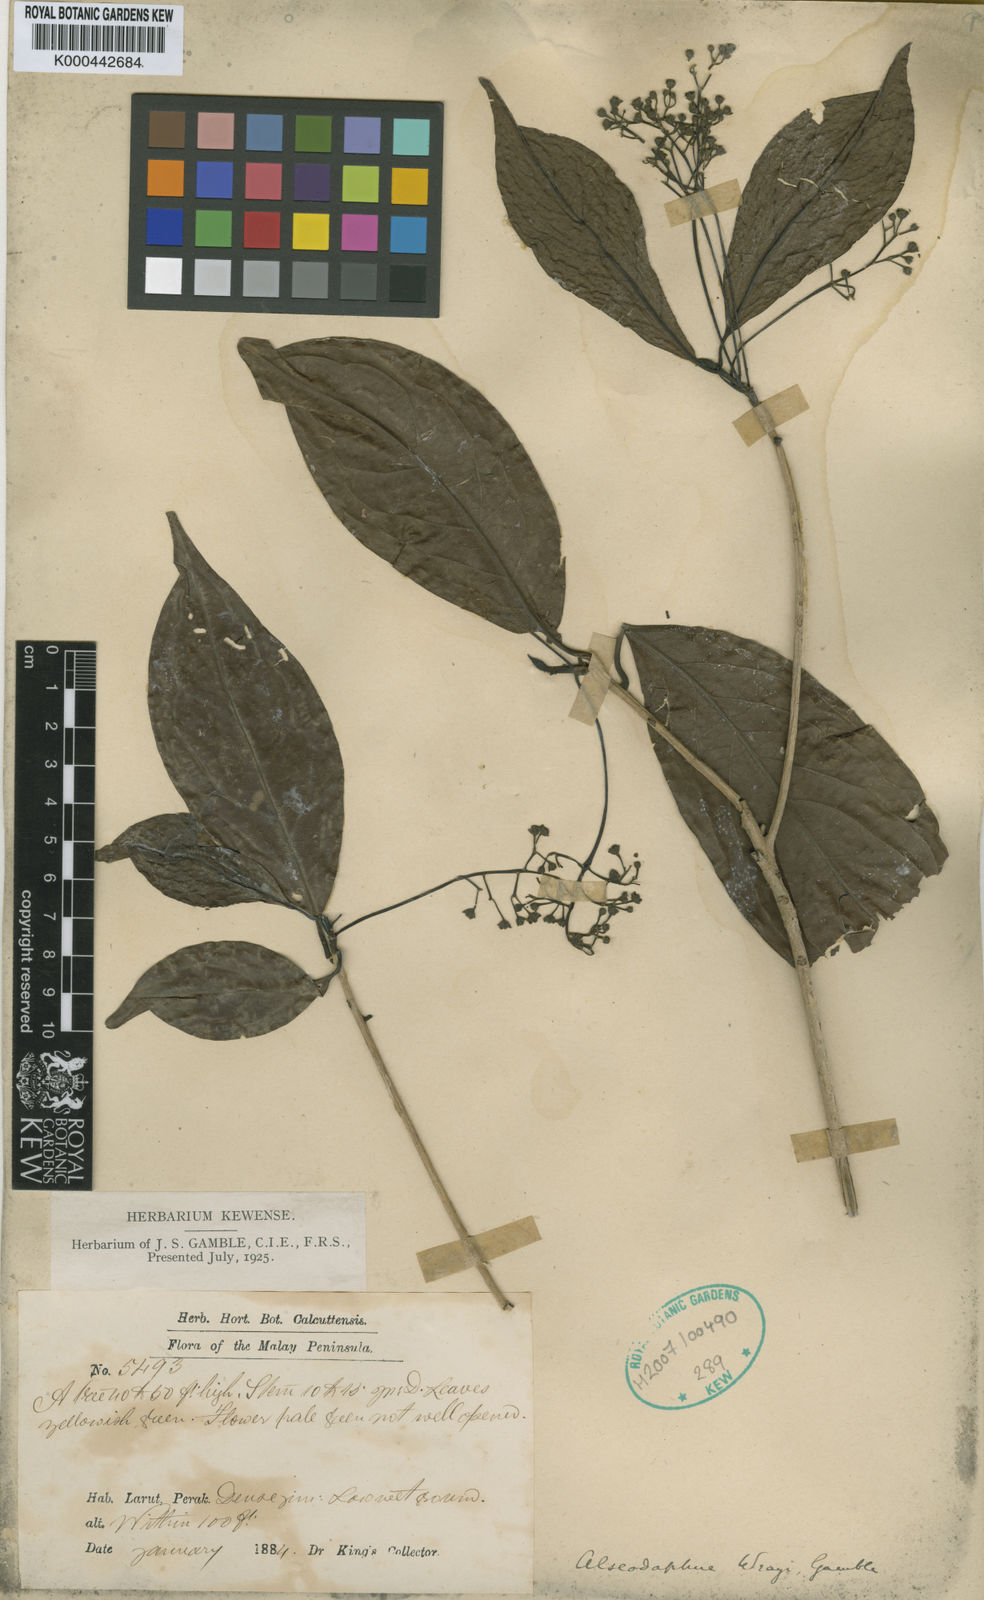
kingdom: Plantae
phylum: Tracheophyta
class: Magnoliopsida
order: Laurales
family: Lauraceae
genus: Alseodaphne
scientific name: Alseodaphne wrayi
